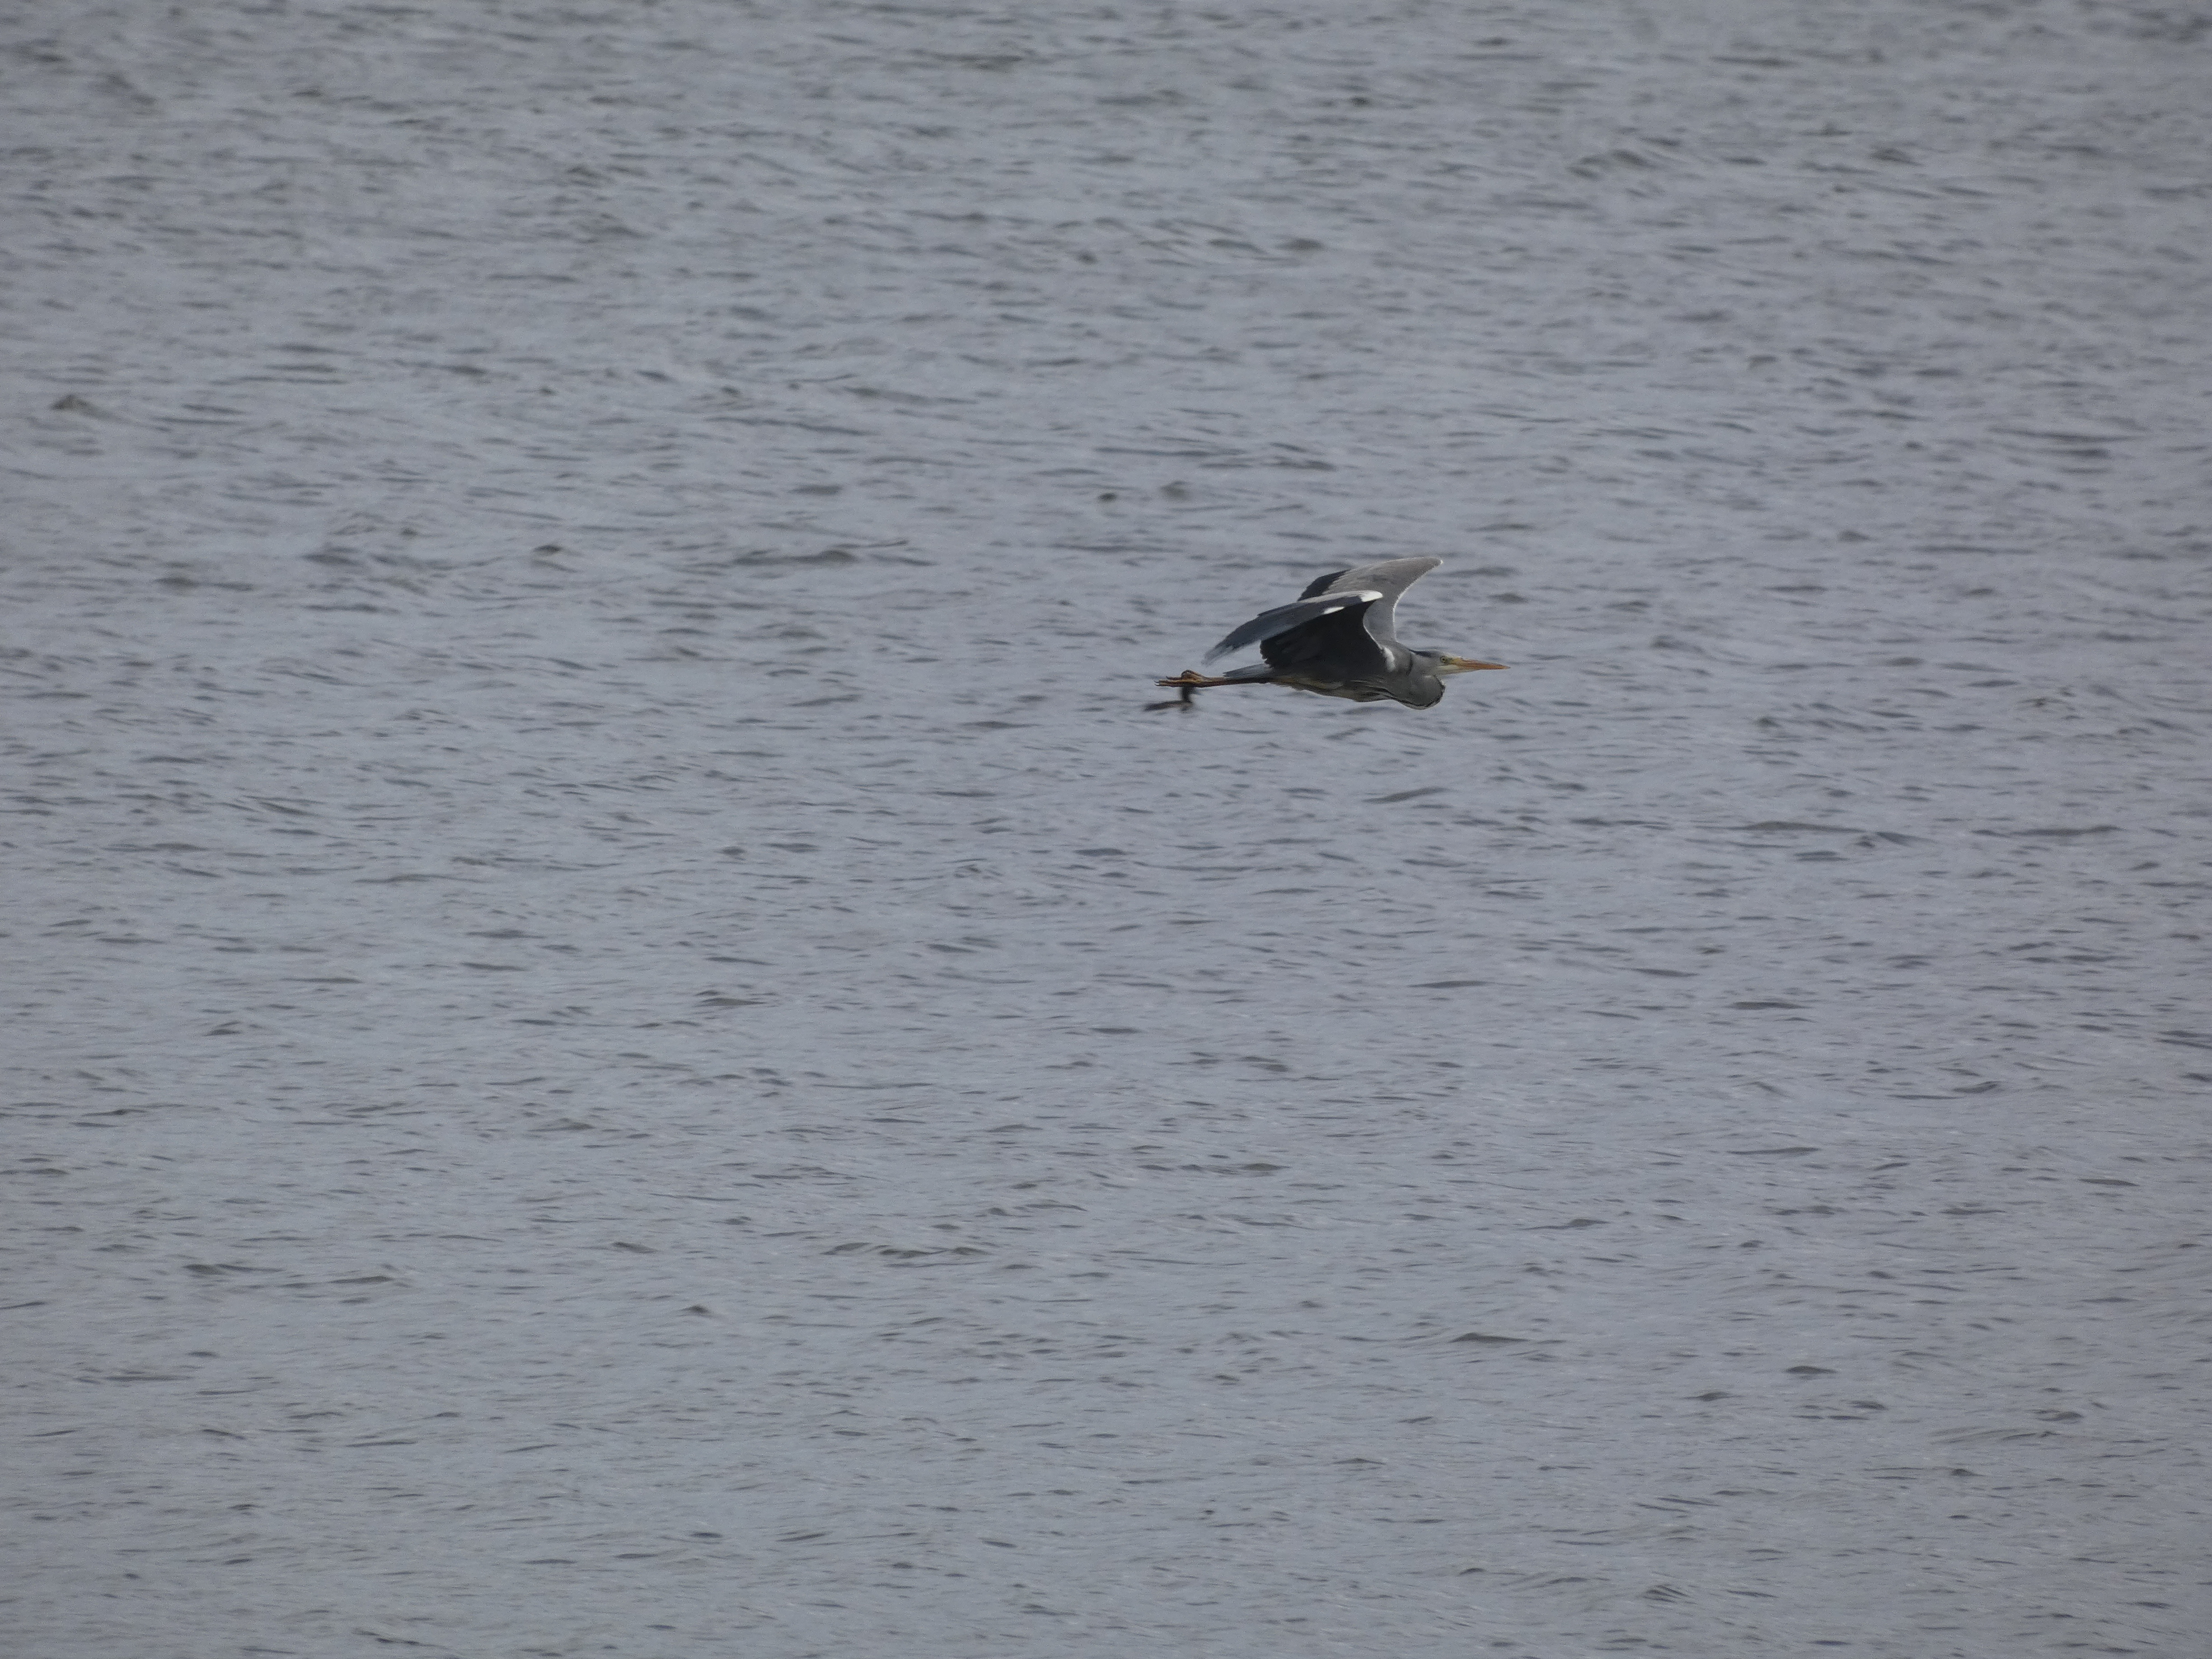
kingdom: Animalia
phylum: Chordata
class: Aves
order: Pelecaniformes
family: Ardeidae
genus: Ardea
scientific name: Ardea cinerea
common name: Fiskehejre
